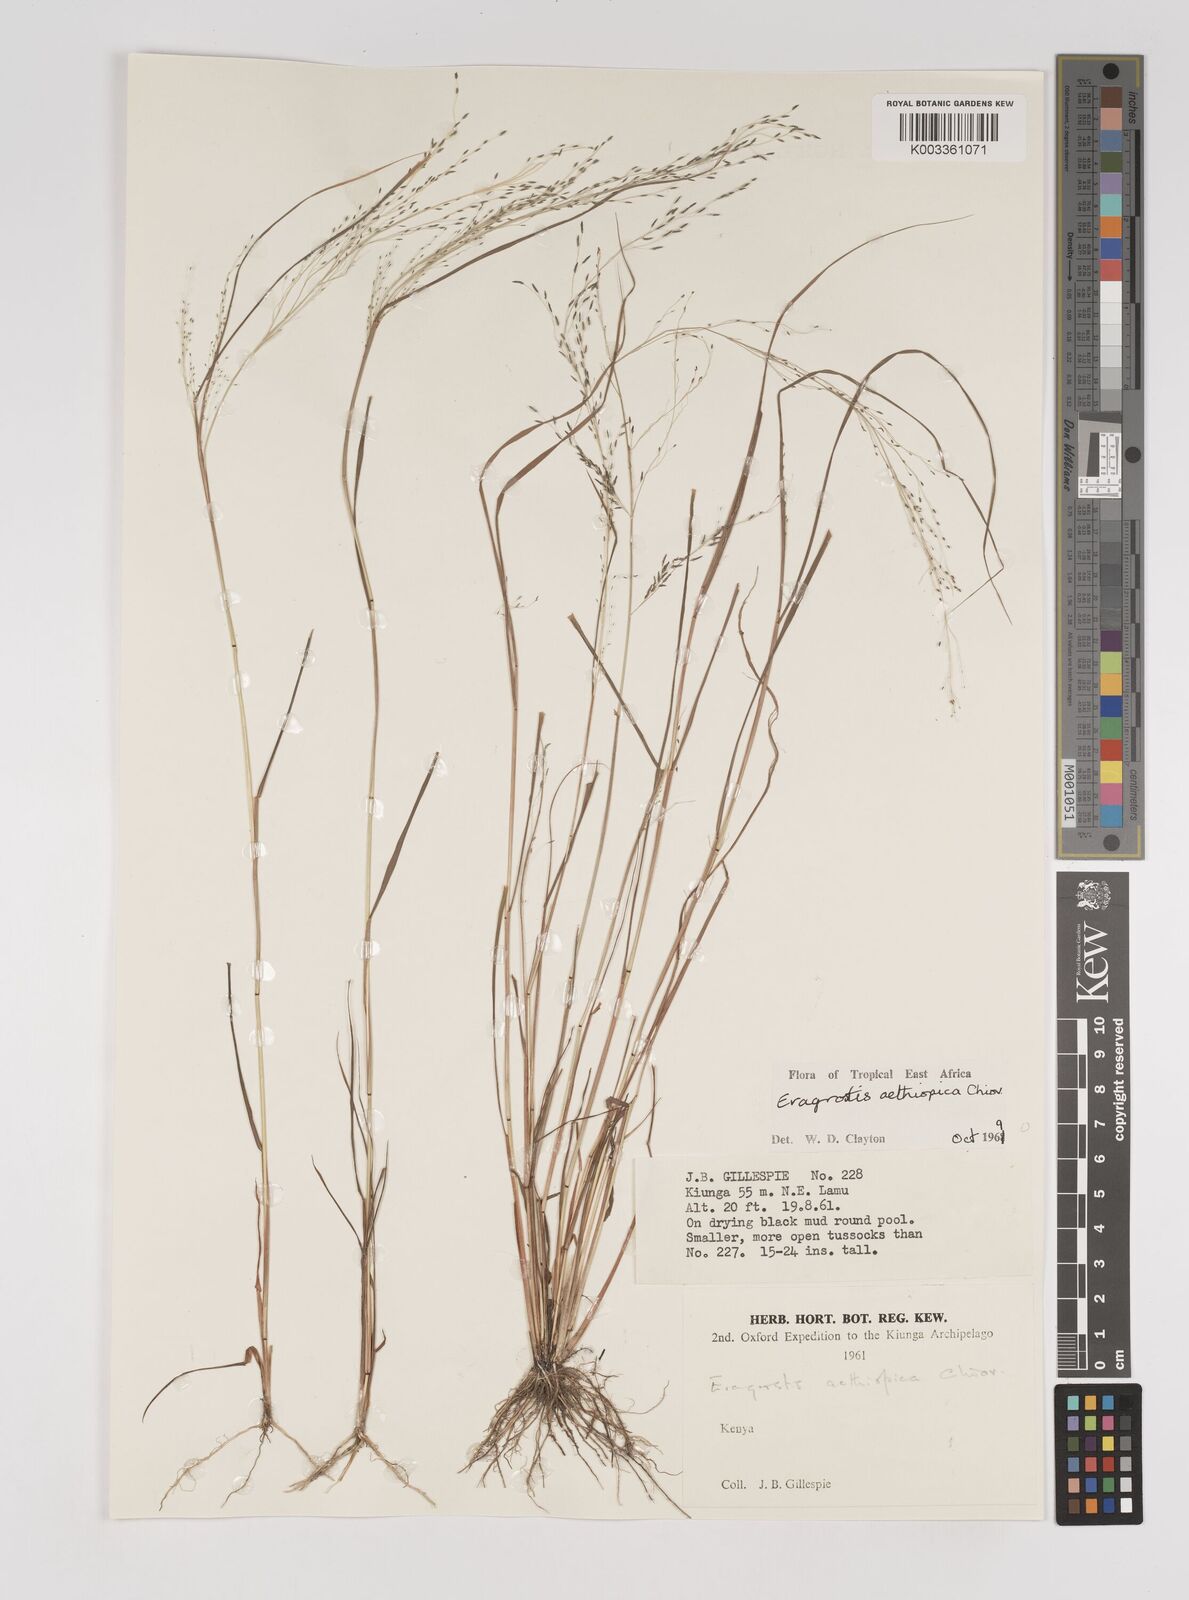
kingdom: Plantae
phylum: Tracheophyta
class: Liliopsida
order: Poales
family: Poaceae
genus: Eragrostis
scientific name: Eragrostis aethiopica
